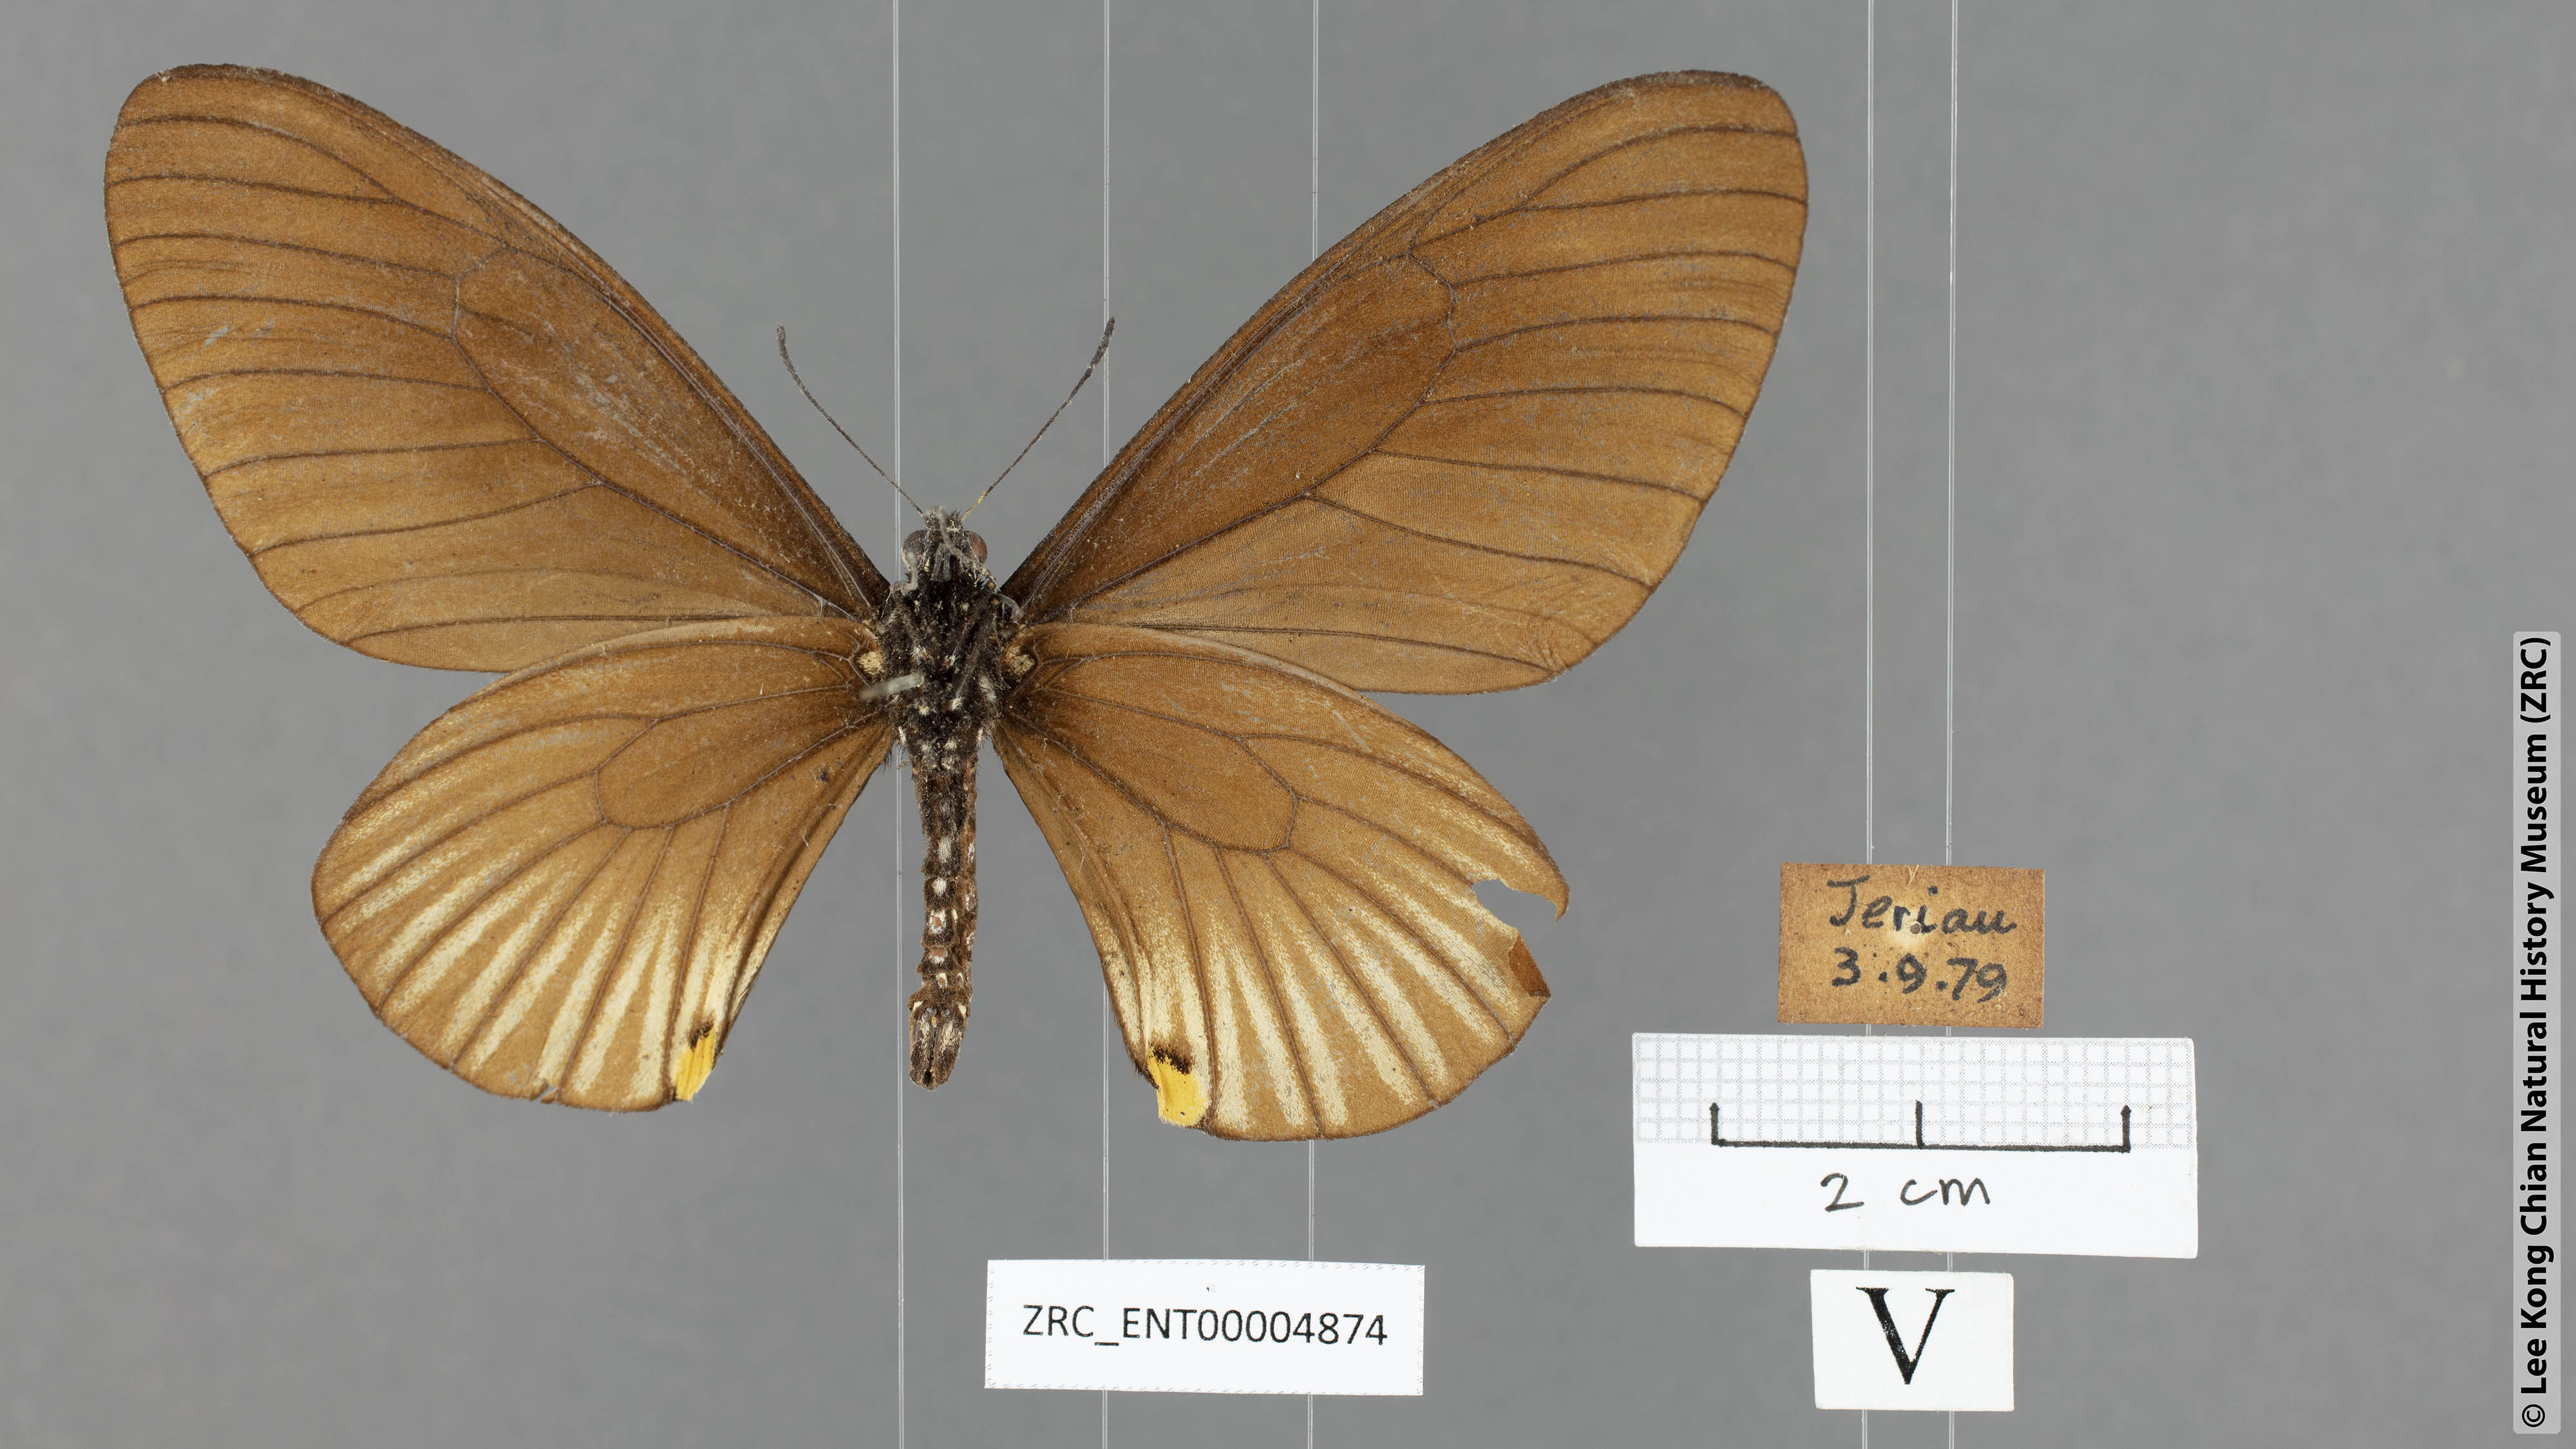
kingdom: Animalia
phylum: Arthropoda
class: Insecta
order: Lepidoptera
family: Papilionidae
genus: Chilasa
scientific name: Chilasa slateri
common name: Blue-striped mime
